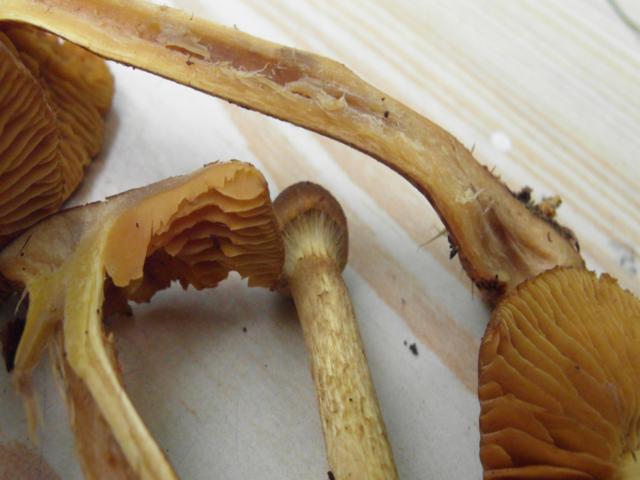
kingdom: Fungi
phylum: Basidiomycota
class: Agaricomycetes
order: Agaricales
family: Cortinariaceae
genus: Cortinarius
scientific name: Cortinarius bataillei
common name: orangefodet slørhat
